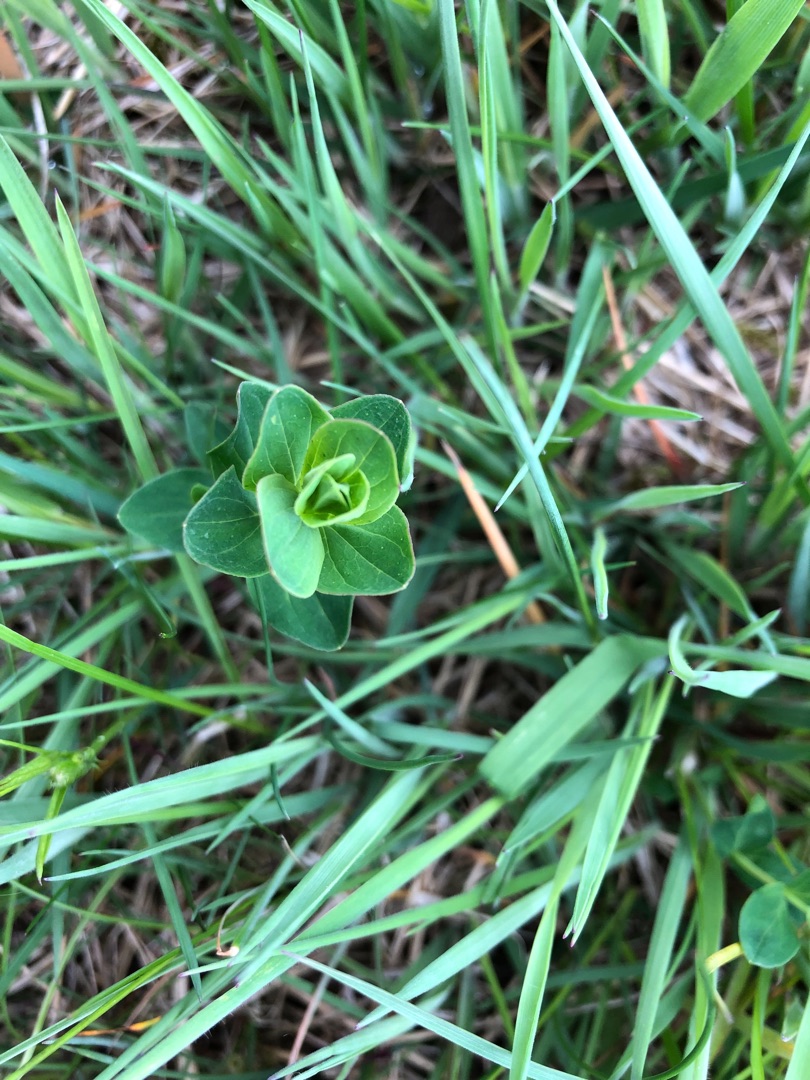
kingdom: Plantae
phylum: Tracheophyta
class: Magnoliopsida
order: Malpighiales
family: Hypericaceae
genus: Hypericum
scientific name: Hypericum perforatum
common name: Prikbladet perikon
